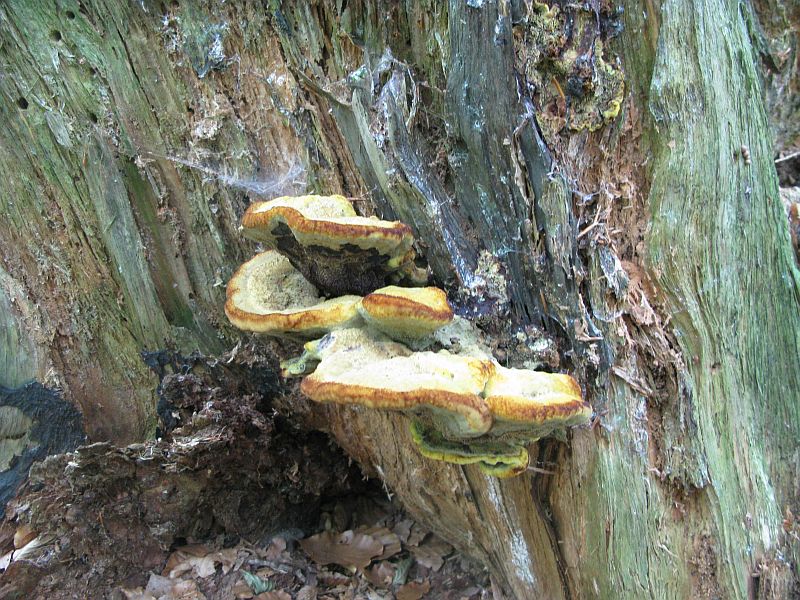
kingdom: Fungi
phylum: Basidiomycota
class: Agaricomycetes
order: Polyporales
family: Laetiporaceae
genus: Phaeolus
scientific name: Phaeolus schweinitzii
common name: brunporesvamp
